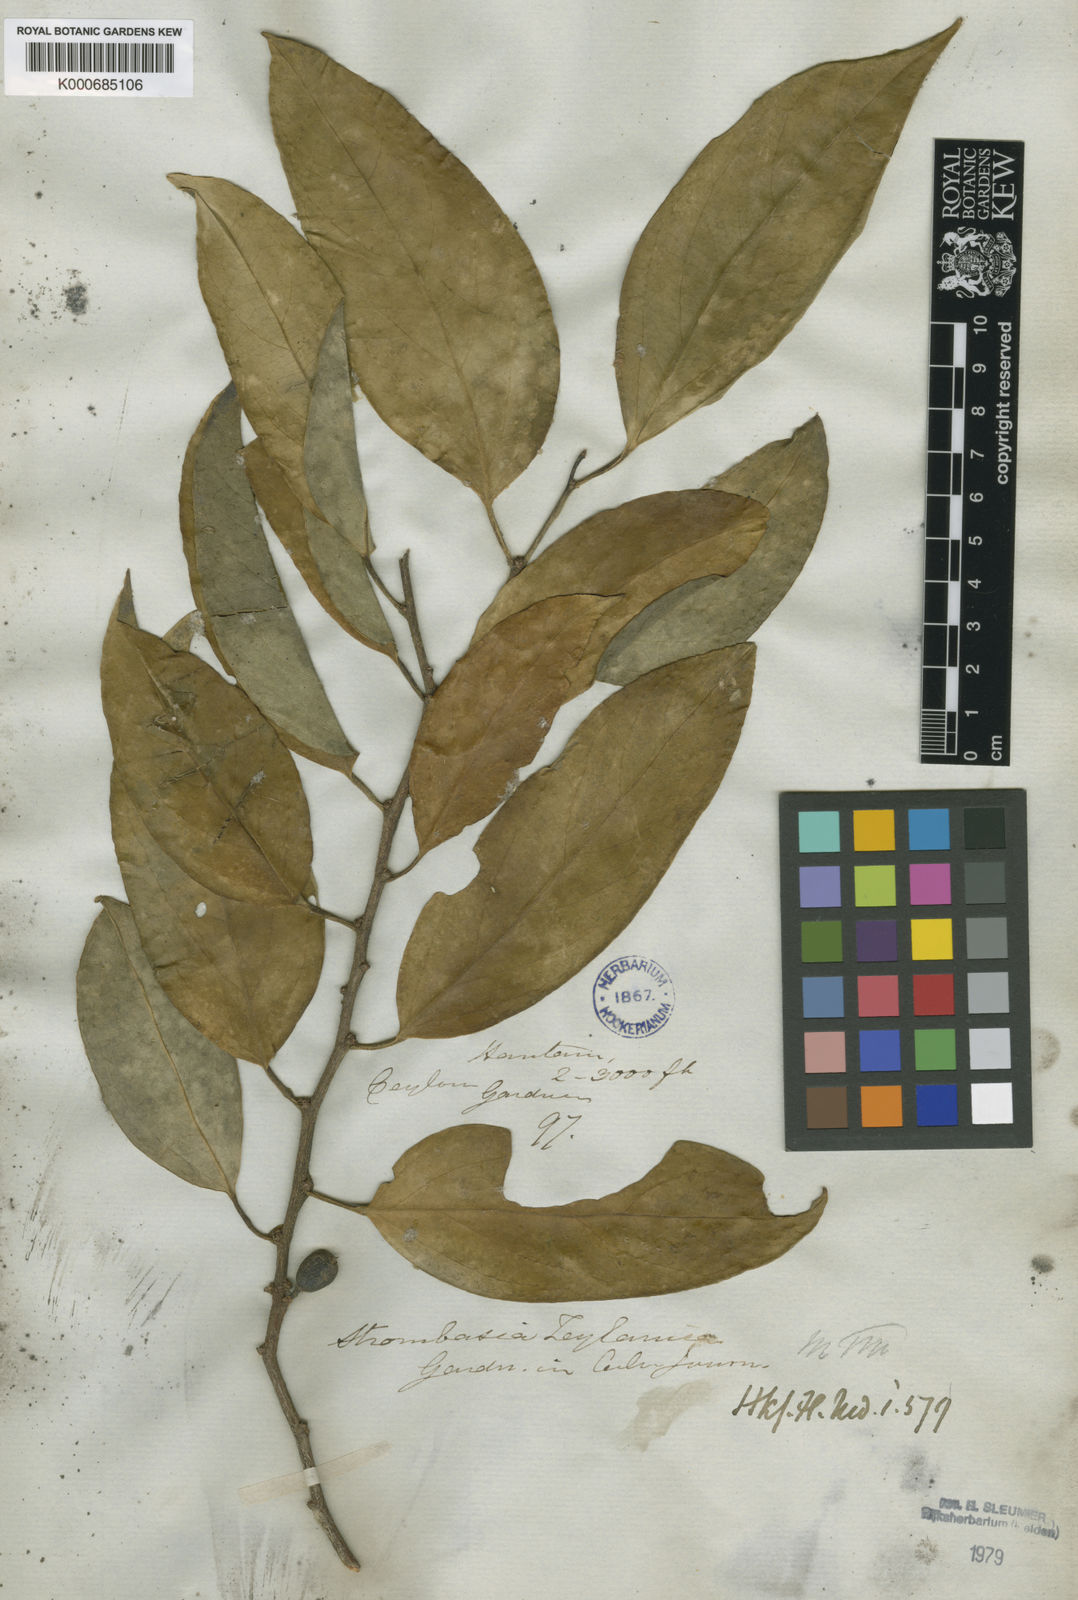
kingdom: Plantae
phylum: Tracheophyta
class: Magnoliopsida
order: Santalales
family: Strombosiaceae
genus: Strombosia
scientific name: Strombosia ceylanica
